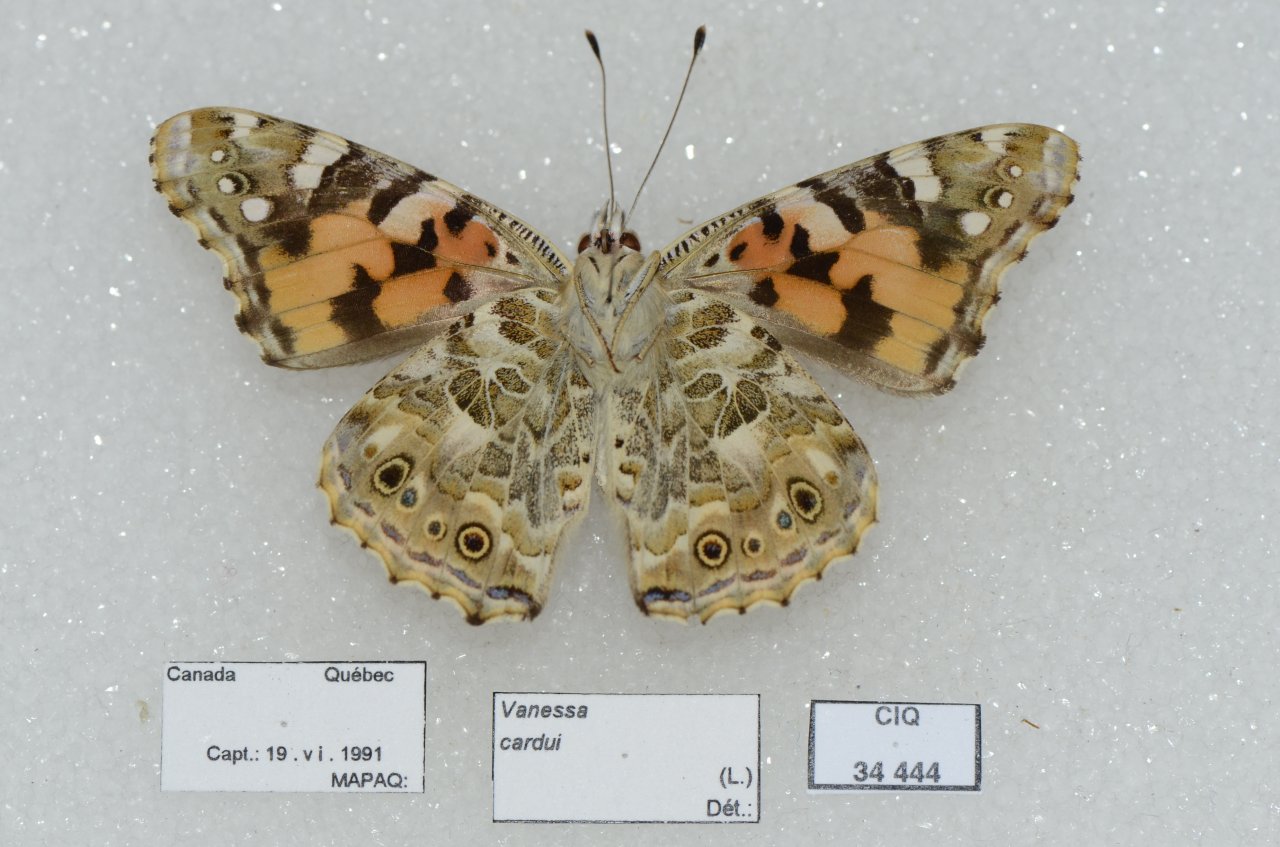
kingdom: Animalia
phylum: Arthropoda
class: Insecta
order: Lepidoptera
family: Nymphalidae
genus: Vanessa
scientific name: Vanessa cardui
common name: Painted Lady
